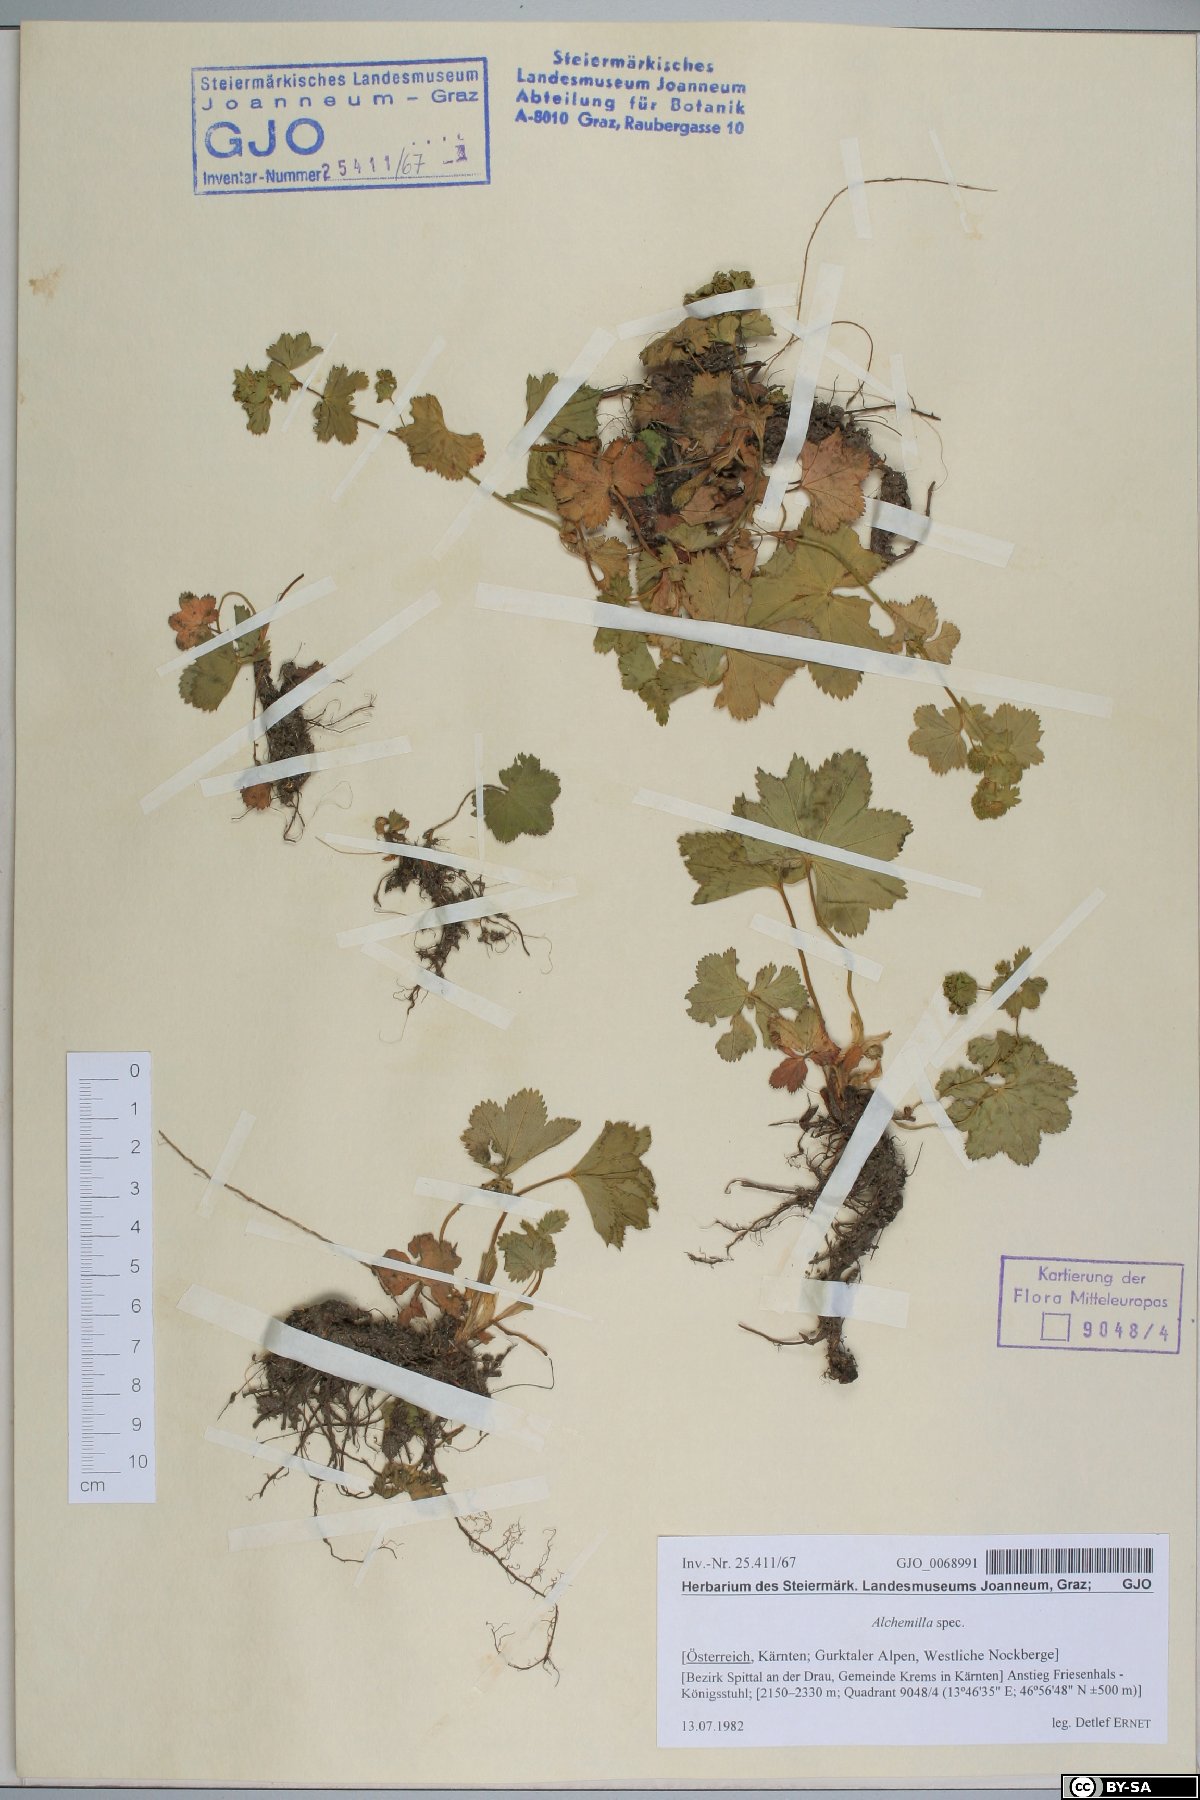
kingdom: Plantae
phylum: Tracheophyta
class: Magnoliopsida
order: Rosales
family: Rosaceae
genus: Alchemilla
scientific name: Alchemilla
